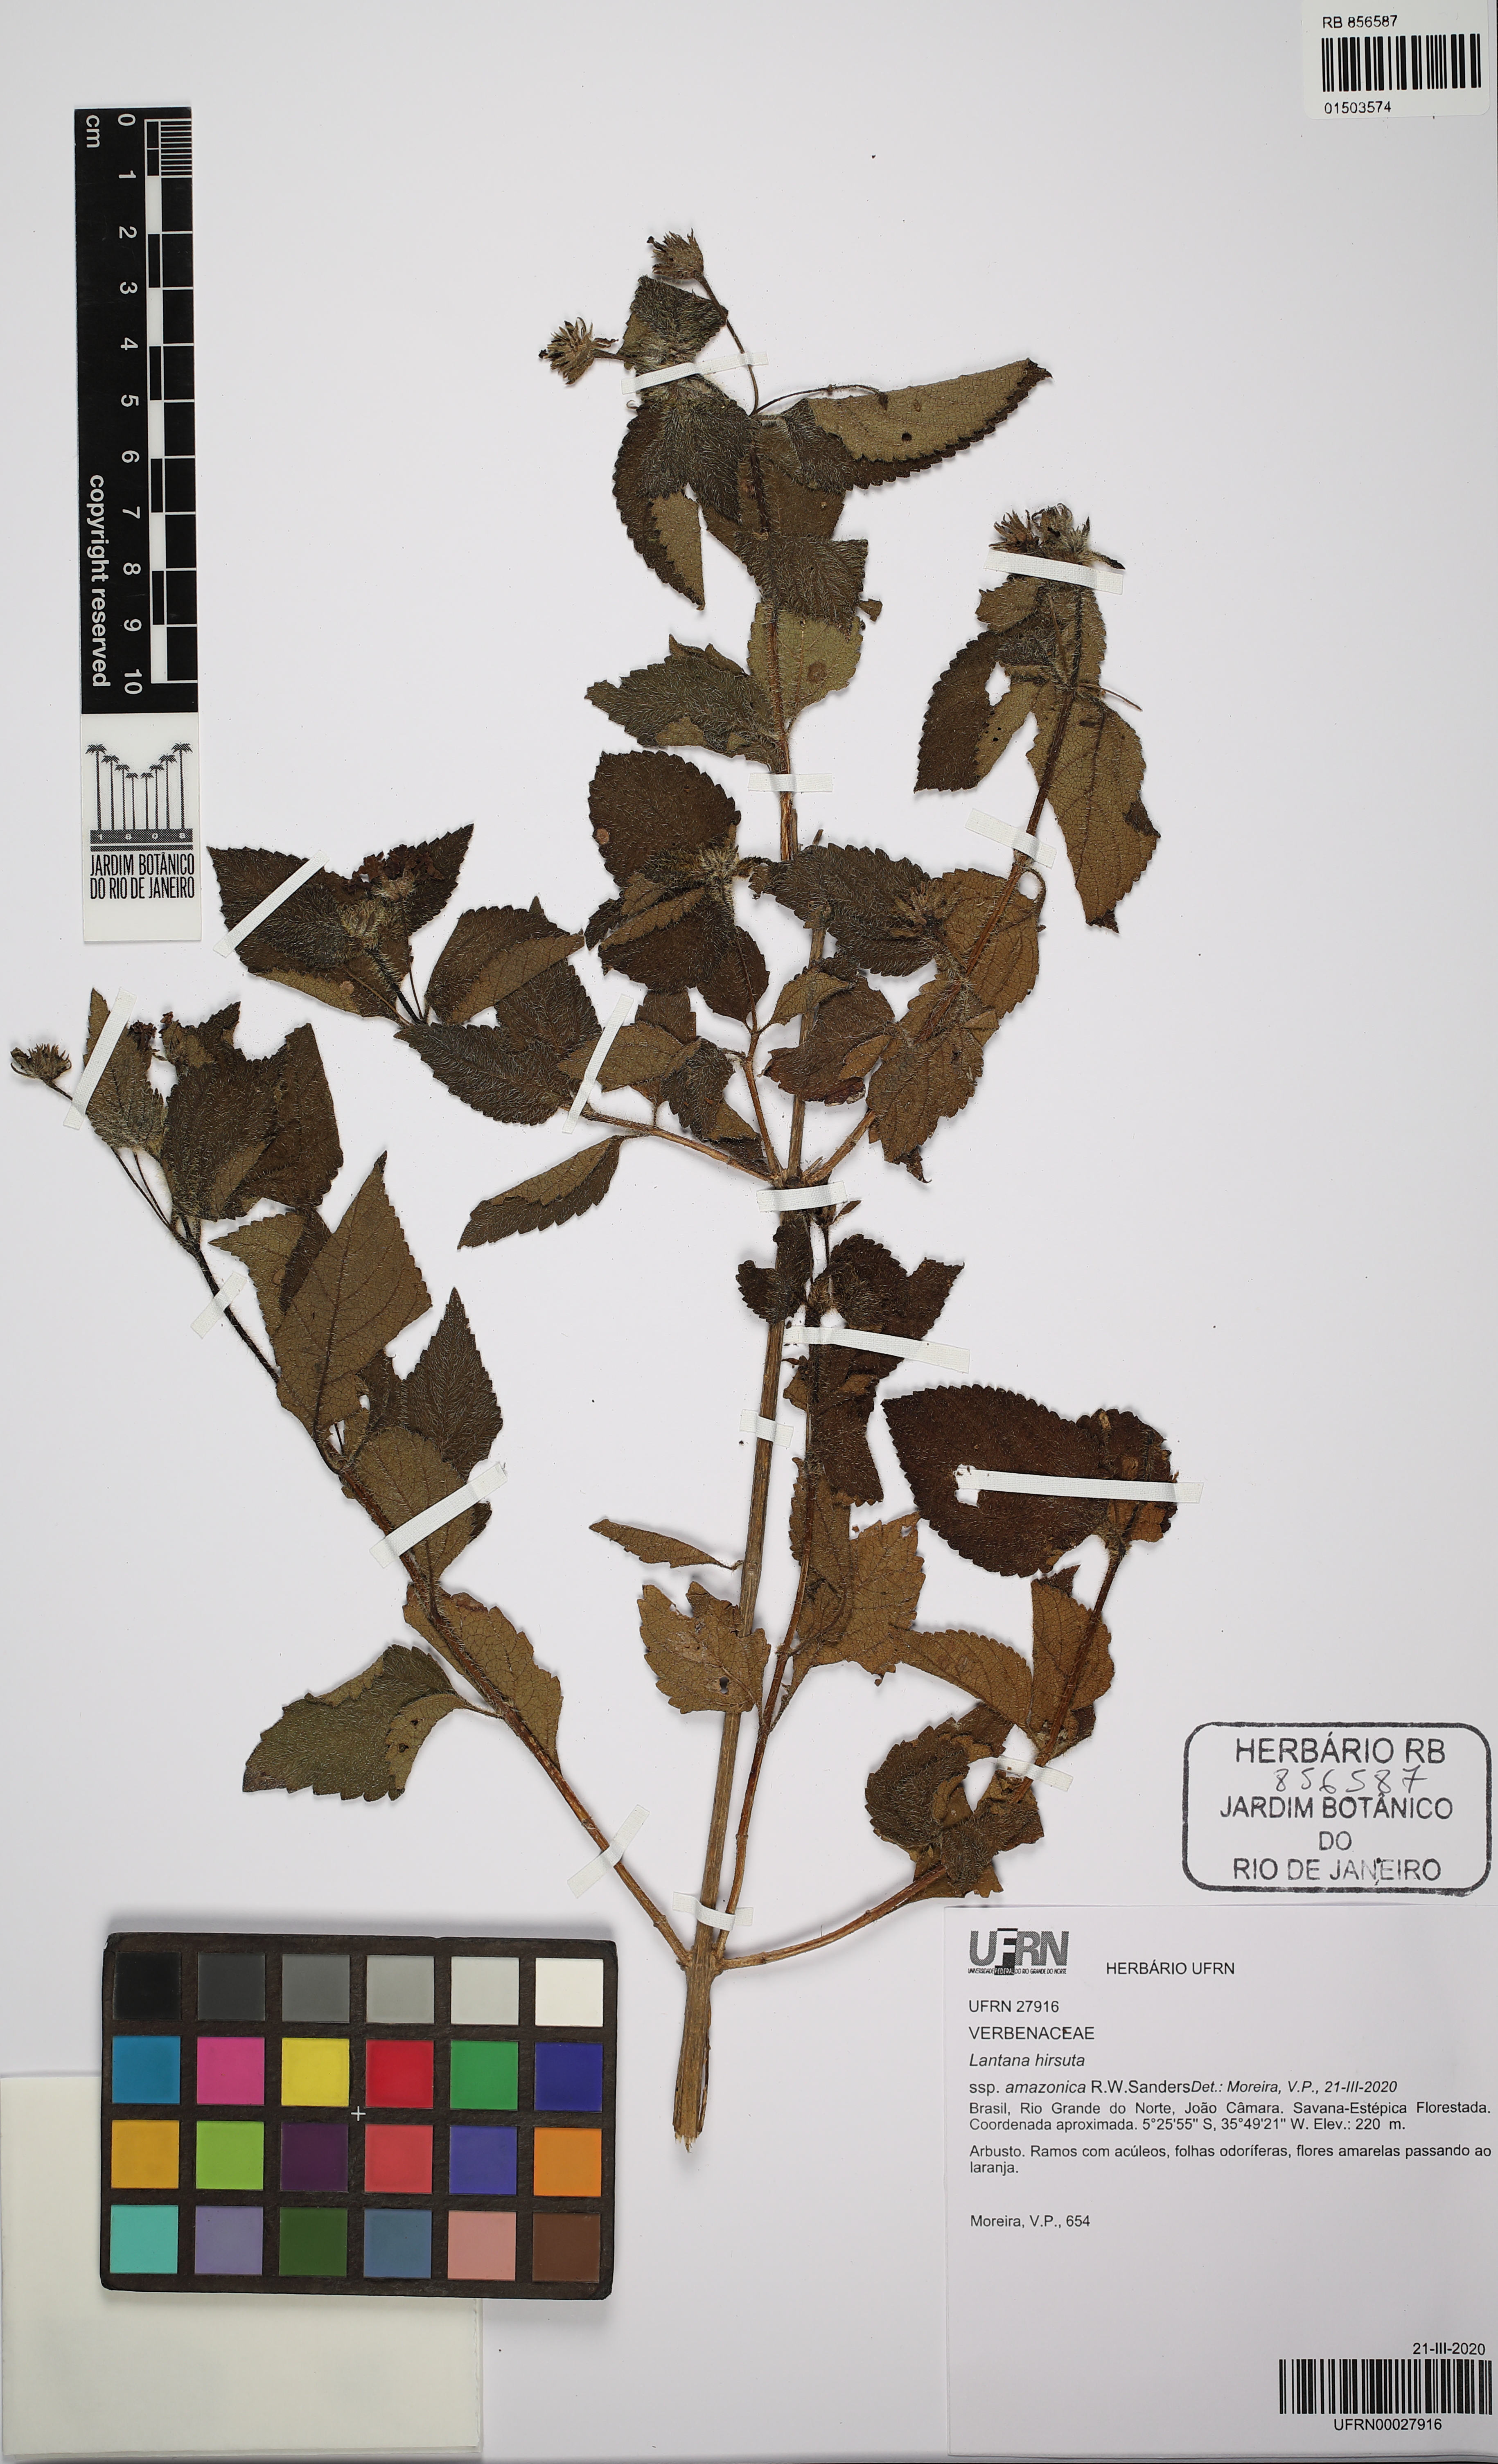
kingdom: Plantae
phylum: Tracheophyta
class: Magnoliopsida
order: Lamiales
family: Verbenaceae
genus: Lantana
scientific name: Lantana hirsuta
